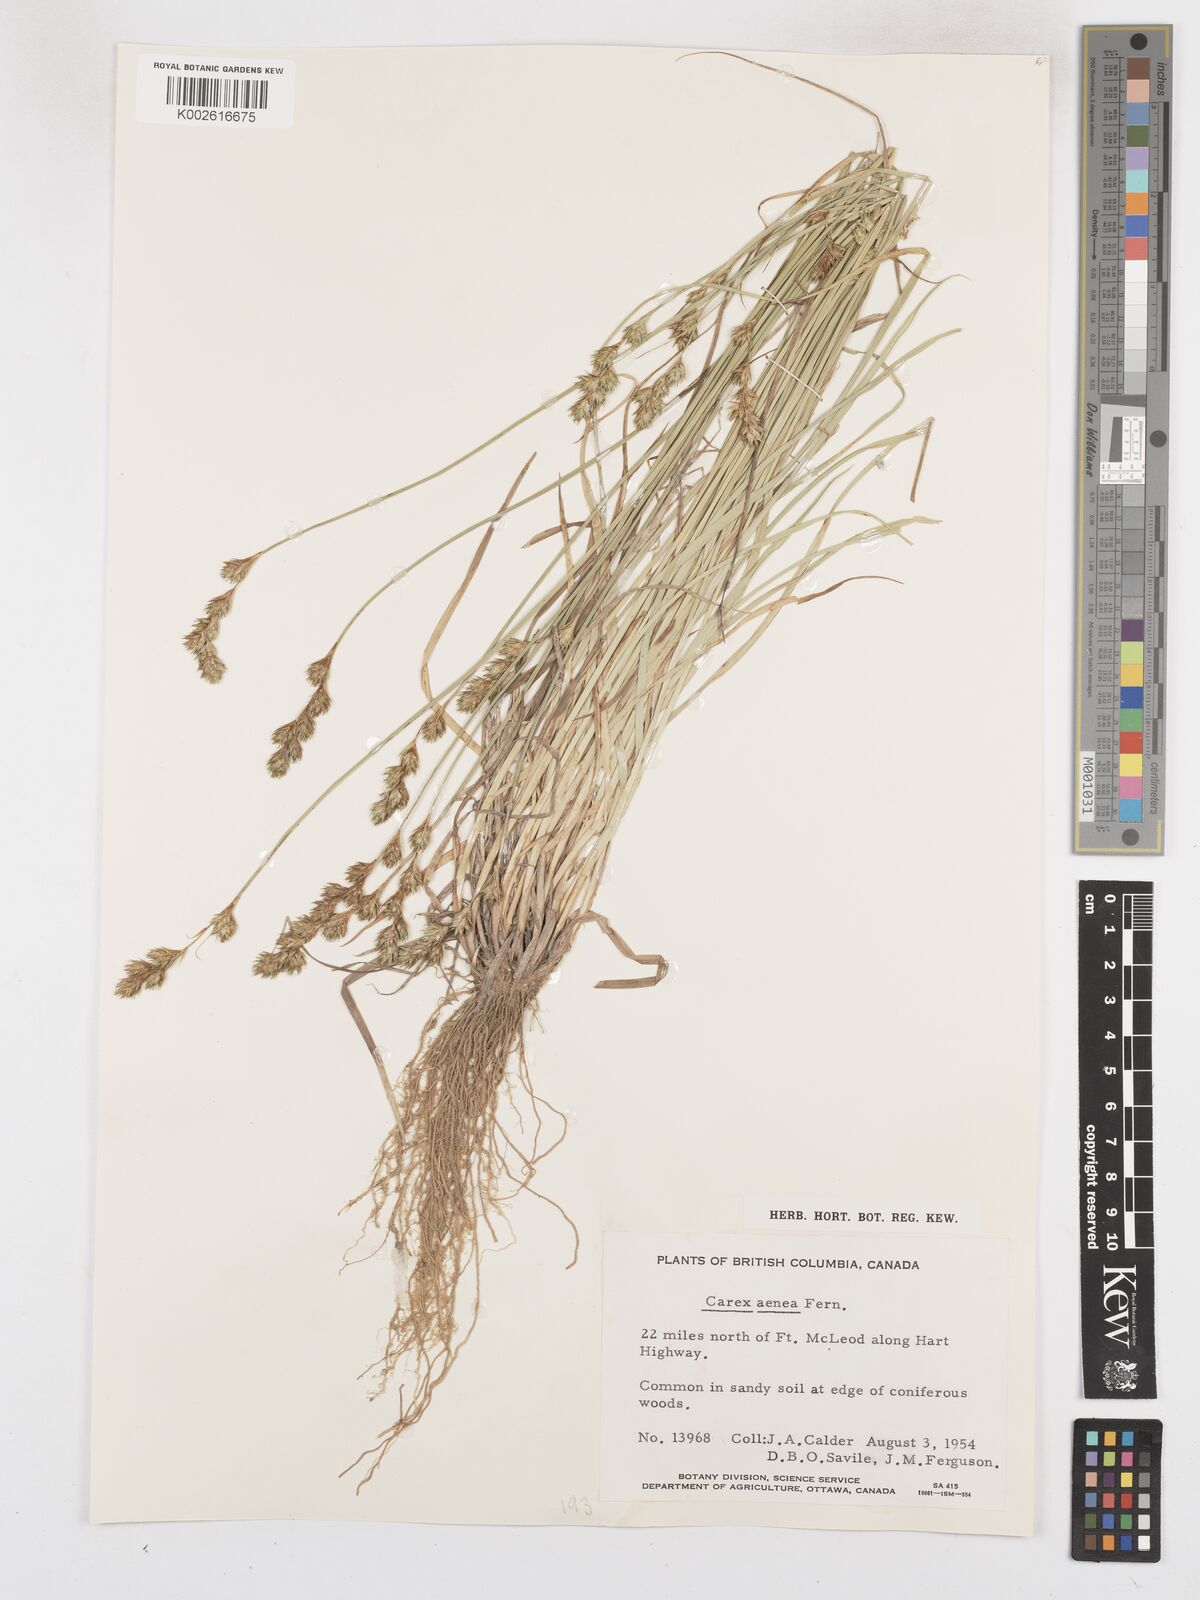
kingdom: Plantae
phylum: Tracheophyta
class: Liliopsida
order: Poales
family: Cyperaceae
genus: Carex
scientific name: Carex foenea
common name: Bronze sedge
